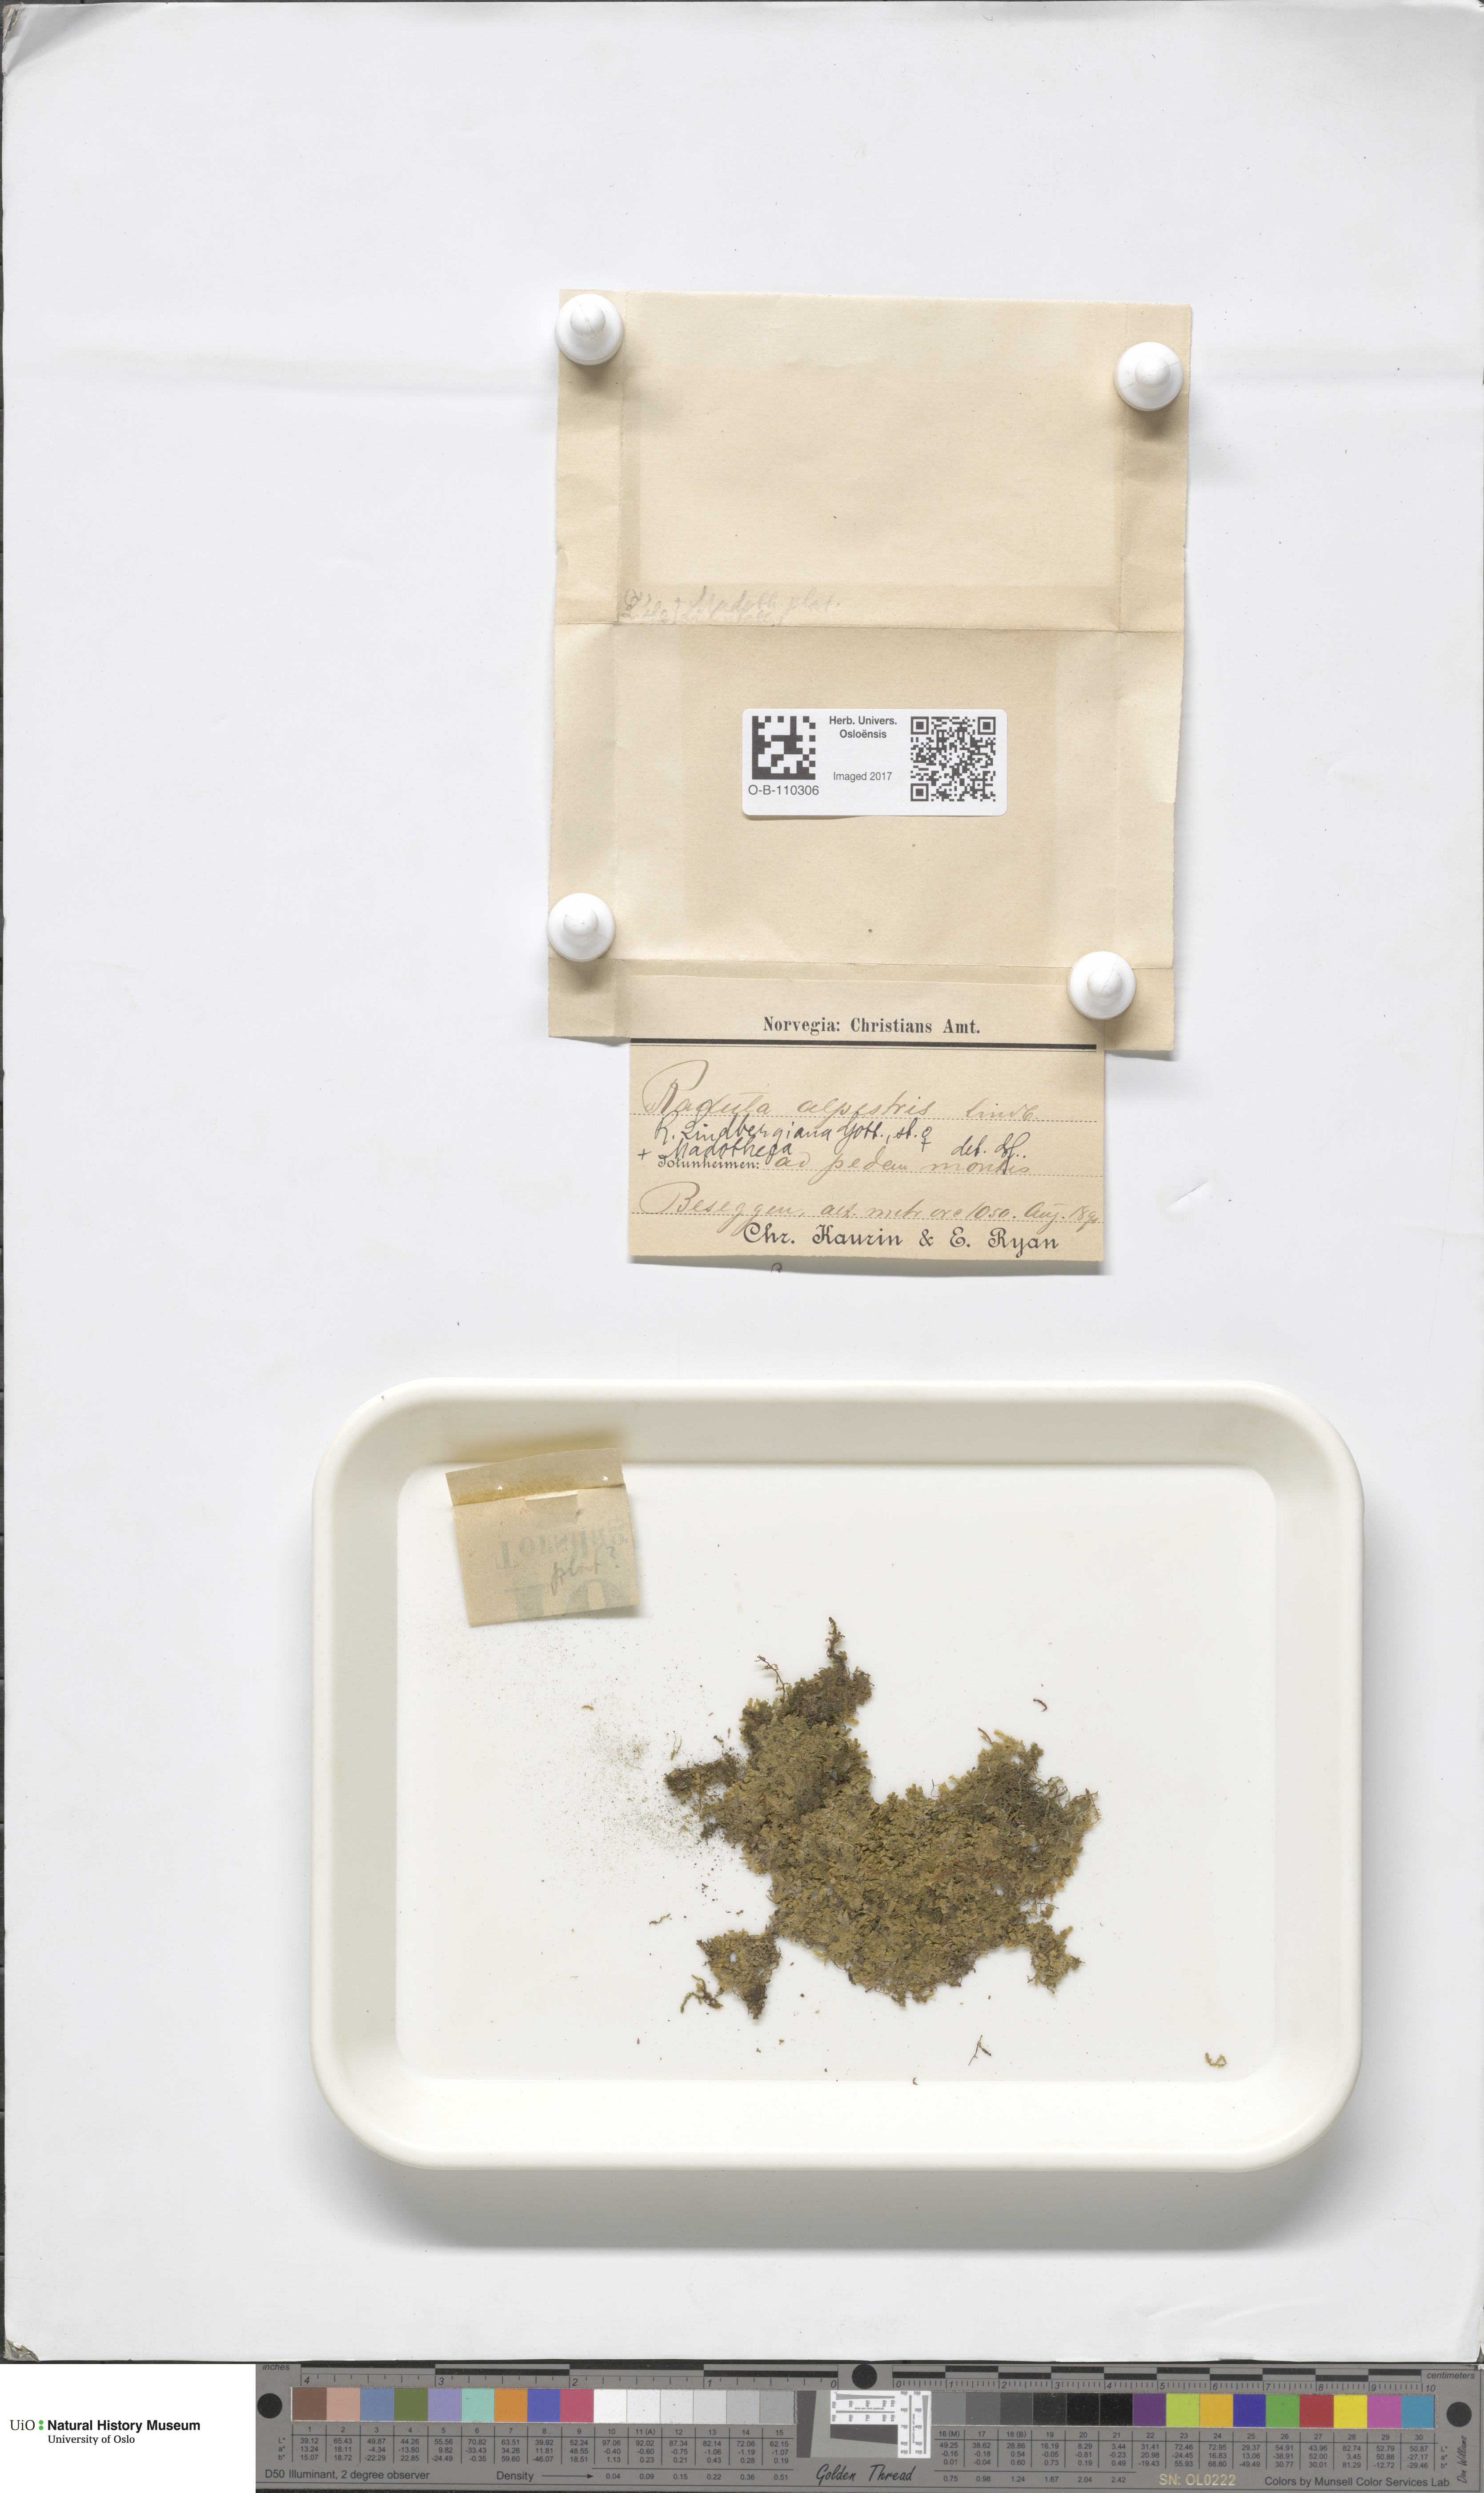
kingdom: Plantae
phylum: Marchantiophyta
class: Jungermanniopsida
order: Porellales
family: Radulaceae
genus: Radula
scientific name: Radula complanata
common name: Flat-leaved scalewort
